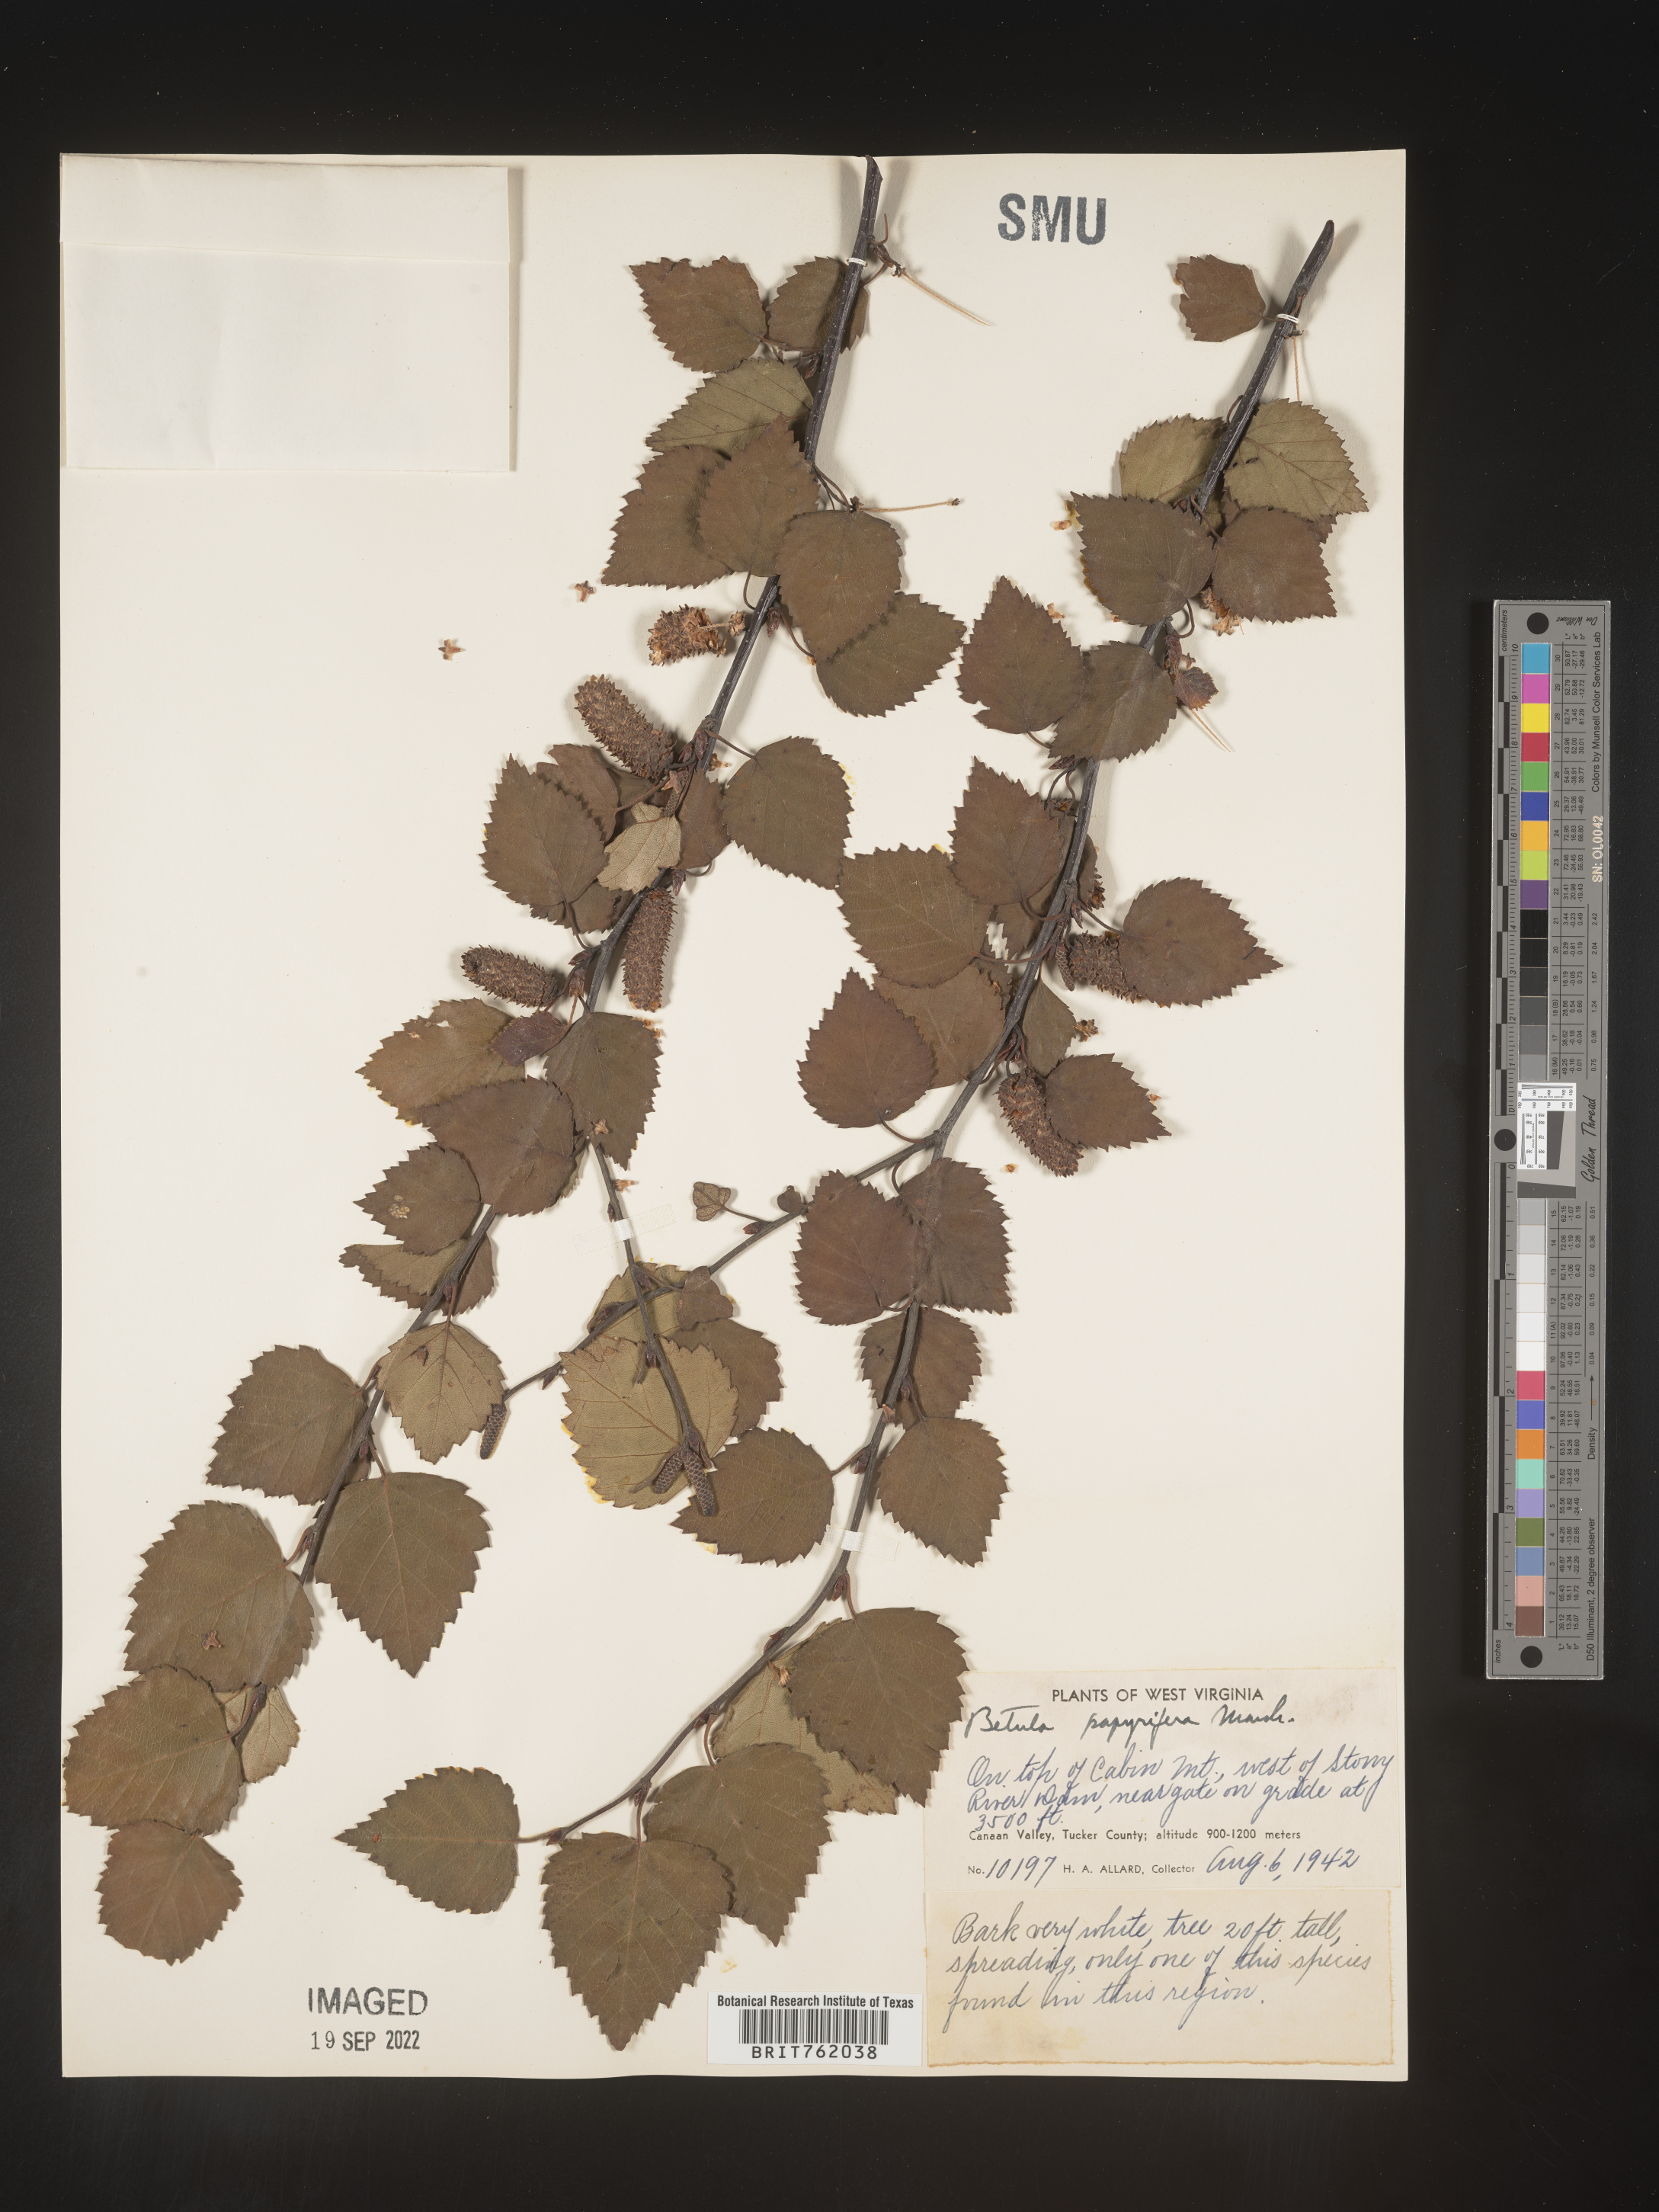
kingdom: Plantae
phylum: Tracheophyta
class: Magnoliopsida
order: Fagales
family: Betulaceae
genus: Betula
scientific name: Betula papyrifera
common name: Paper birch
